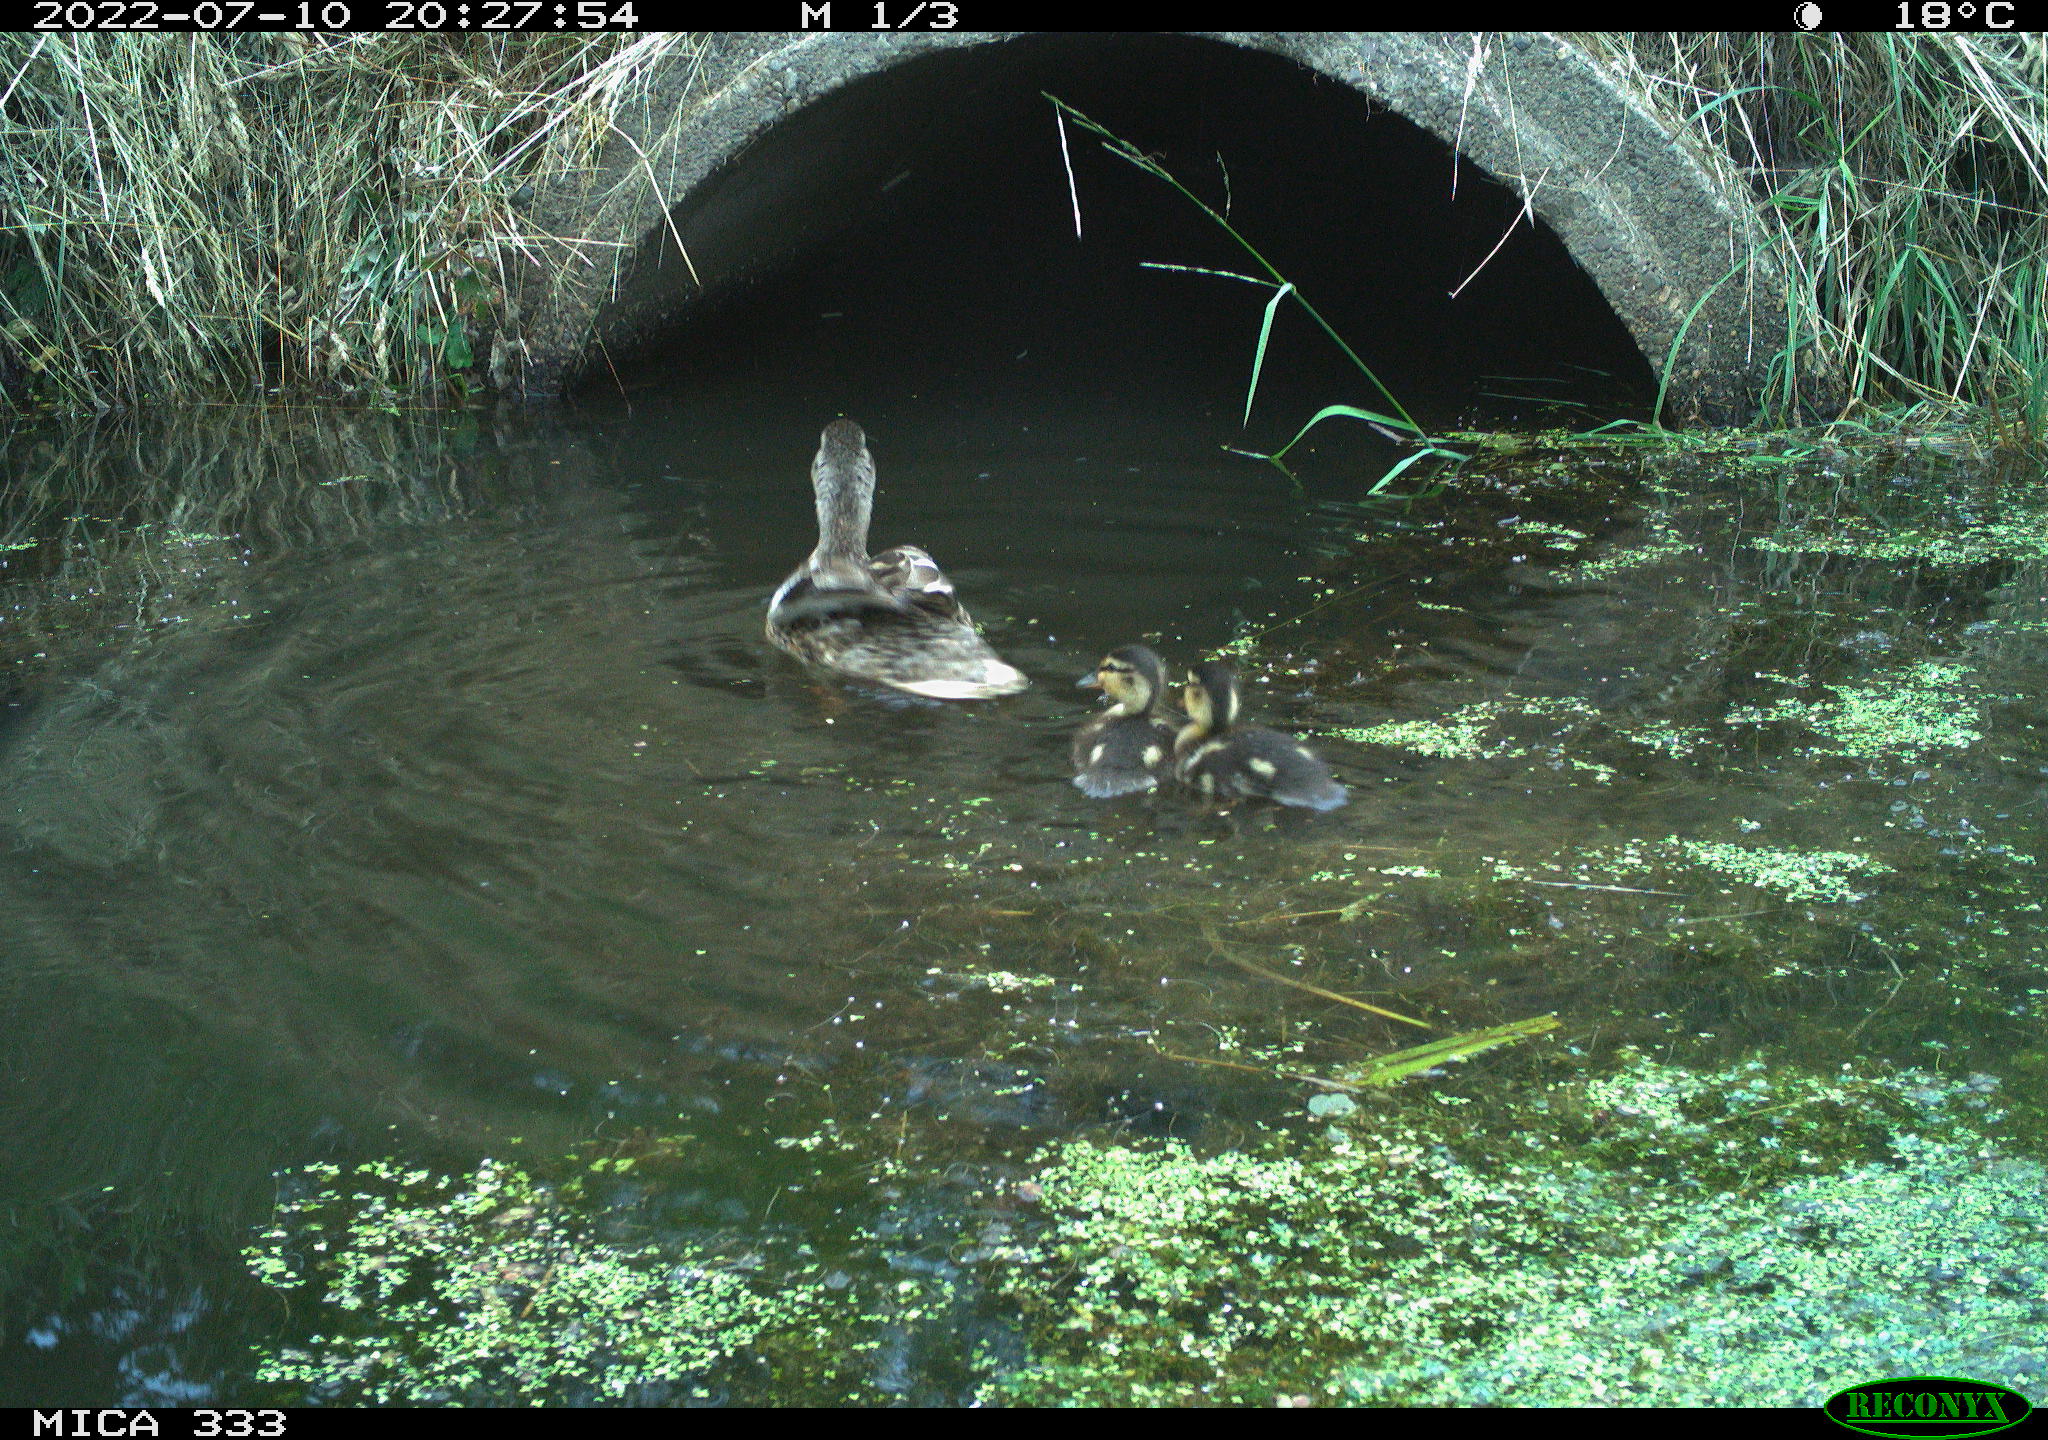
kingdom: Animalia
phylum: Chordata
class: Aves
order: Anseriformes
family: Anatidae
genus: Anas
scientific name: Anas platyrhynchos
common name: Mallard
